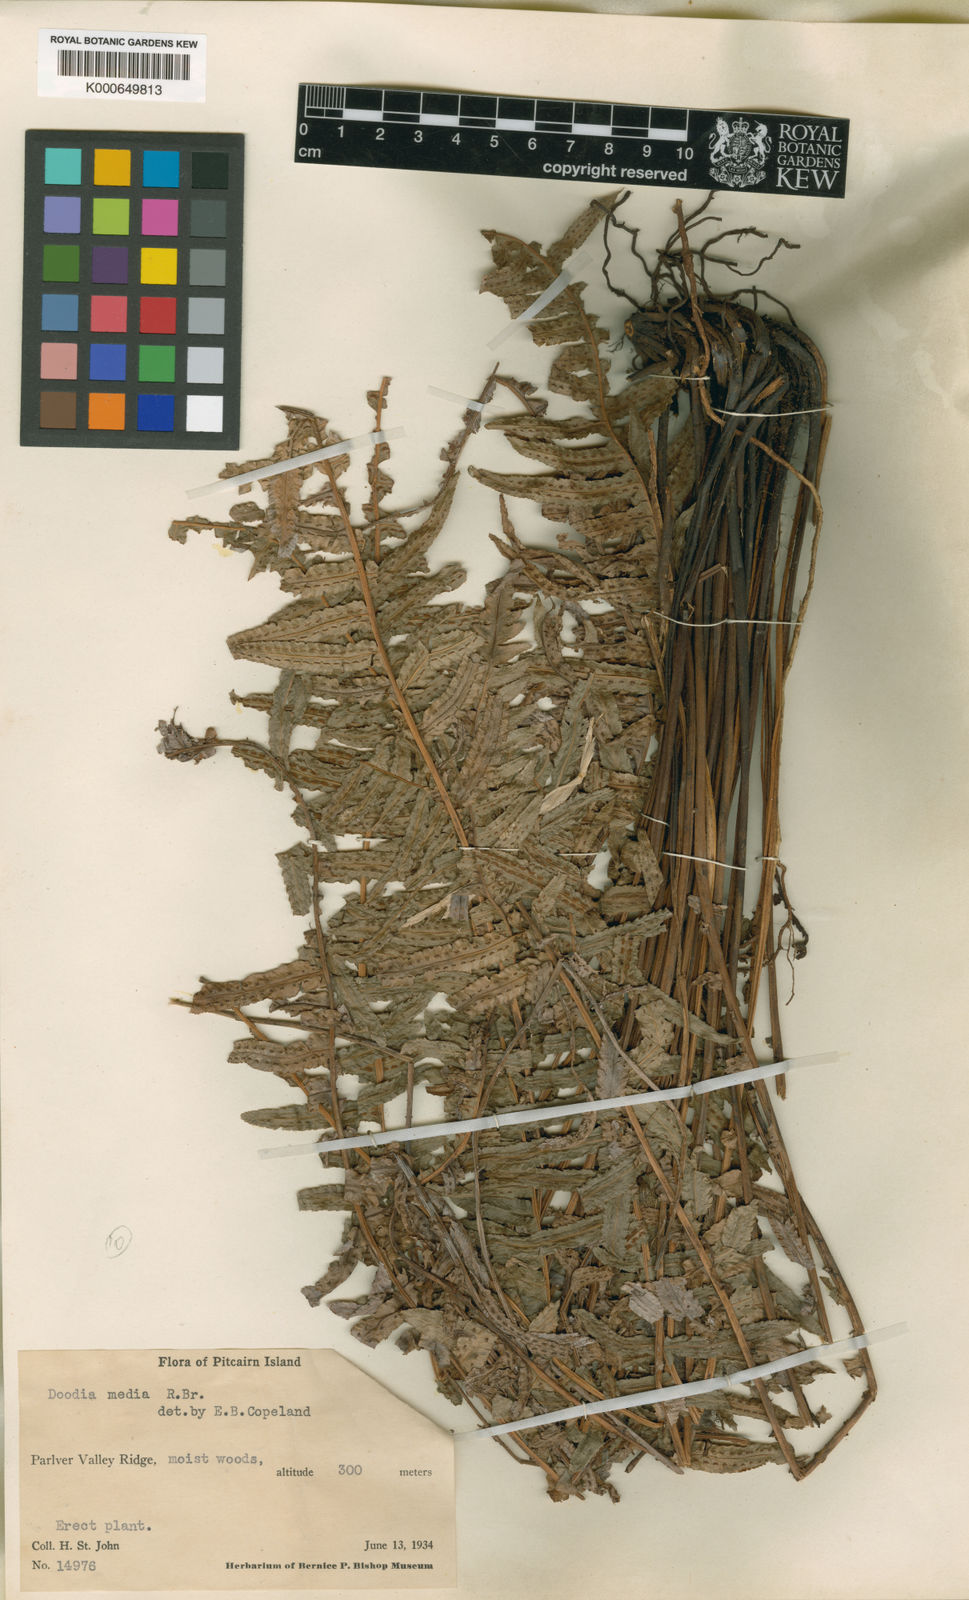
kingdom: Plantae
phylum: Tracheophyta
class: Polypodiopsida
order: Polypodiales
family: Blechnaceae
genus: Doodia
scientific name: Doodia media
